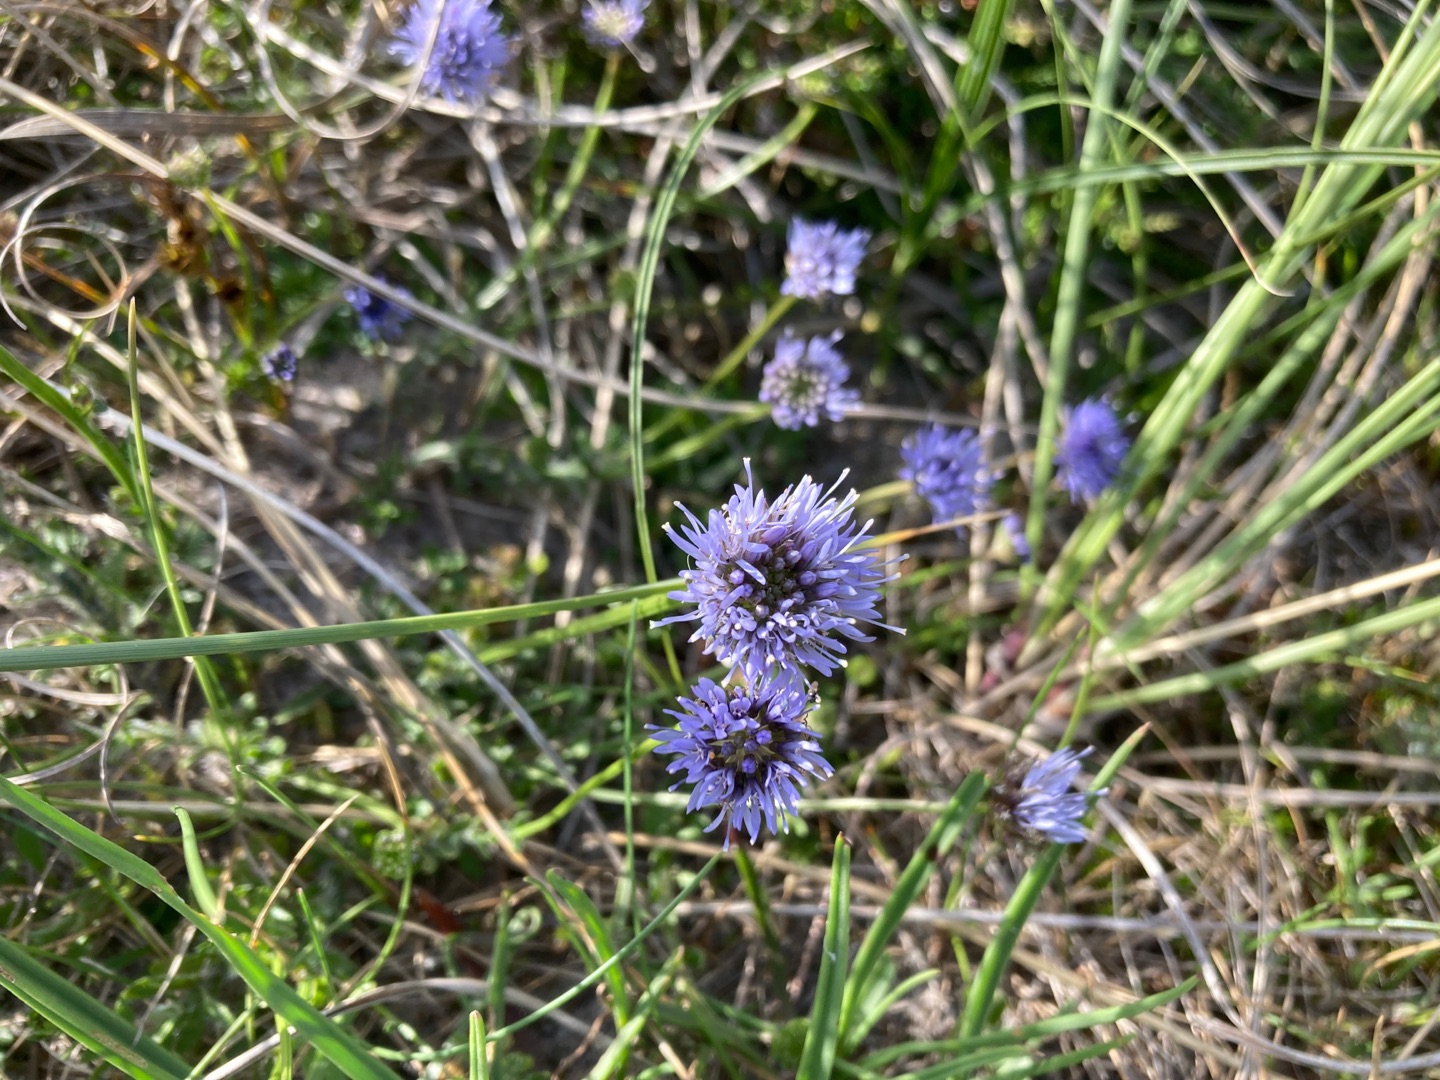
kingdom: Plantae
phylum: Tracheophyta
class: Magnoliopsida
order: Asterales
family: Campanulaceae
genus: Jasione
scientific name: Jasione montana
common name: Blåmunke
